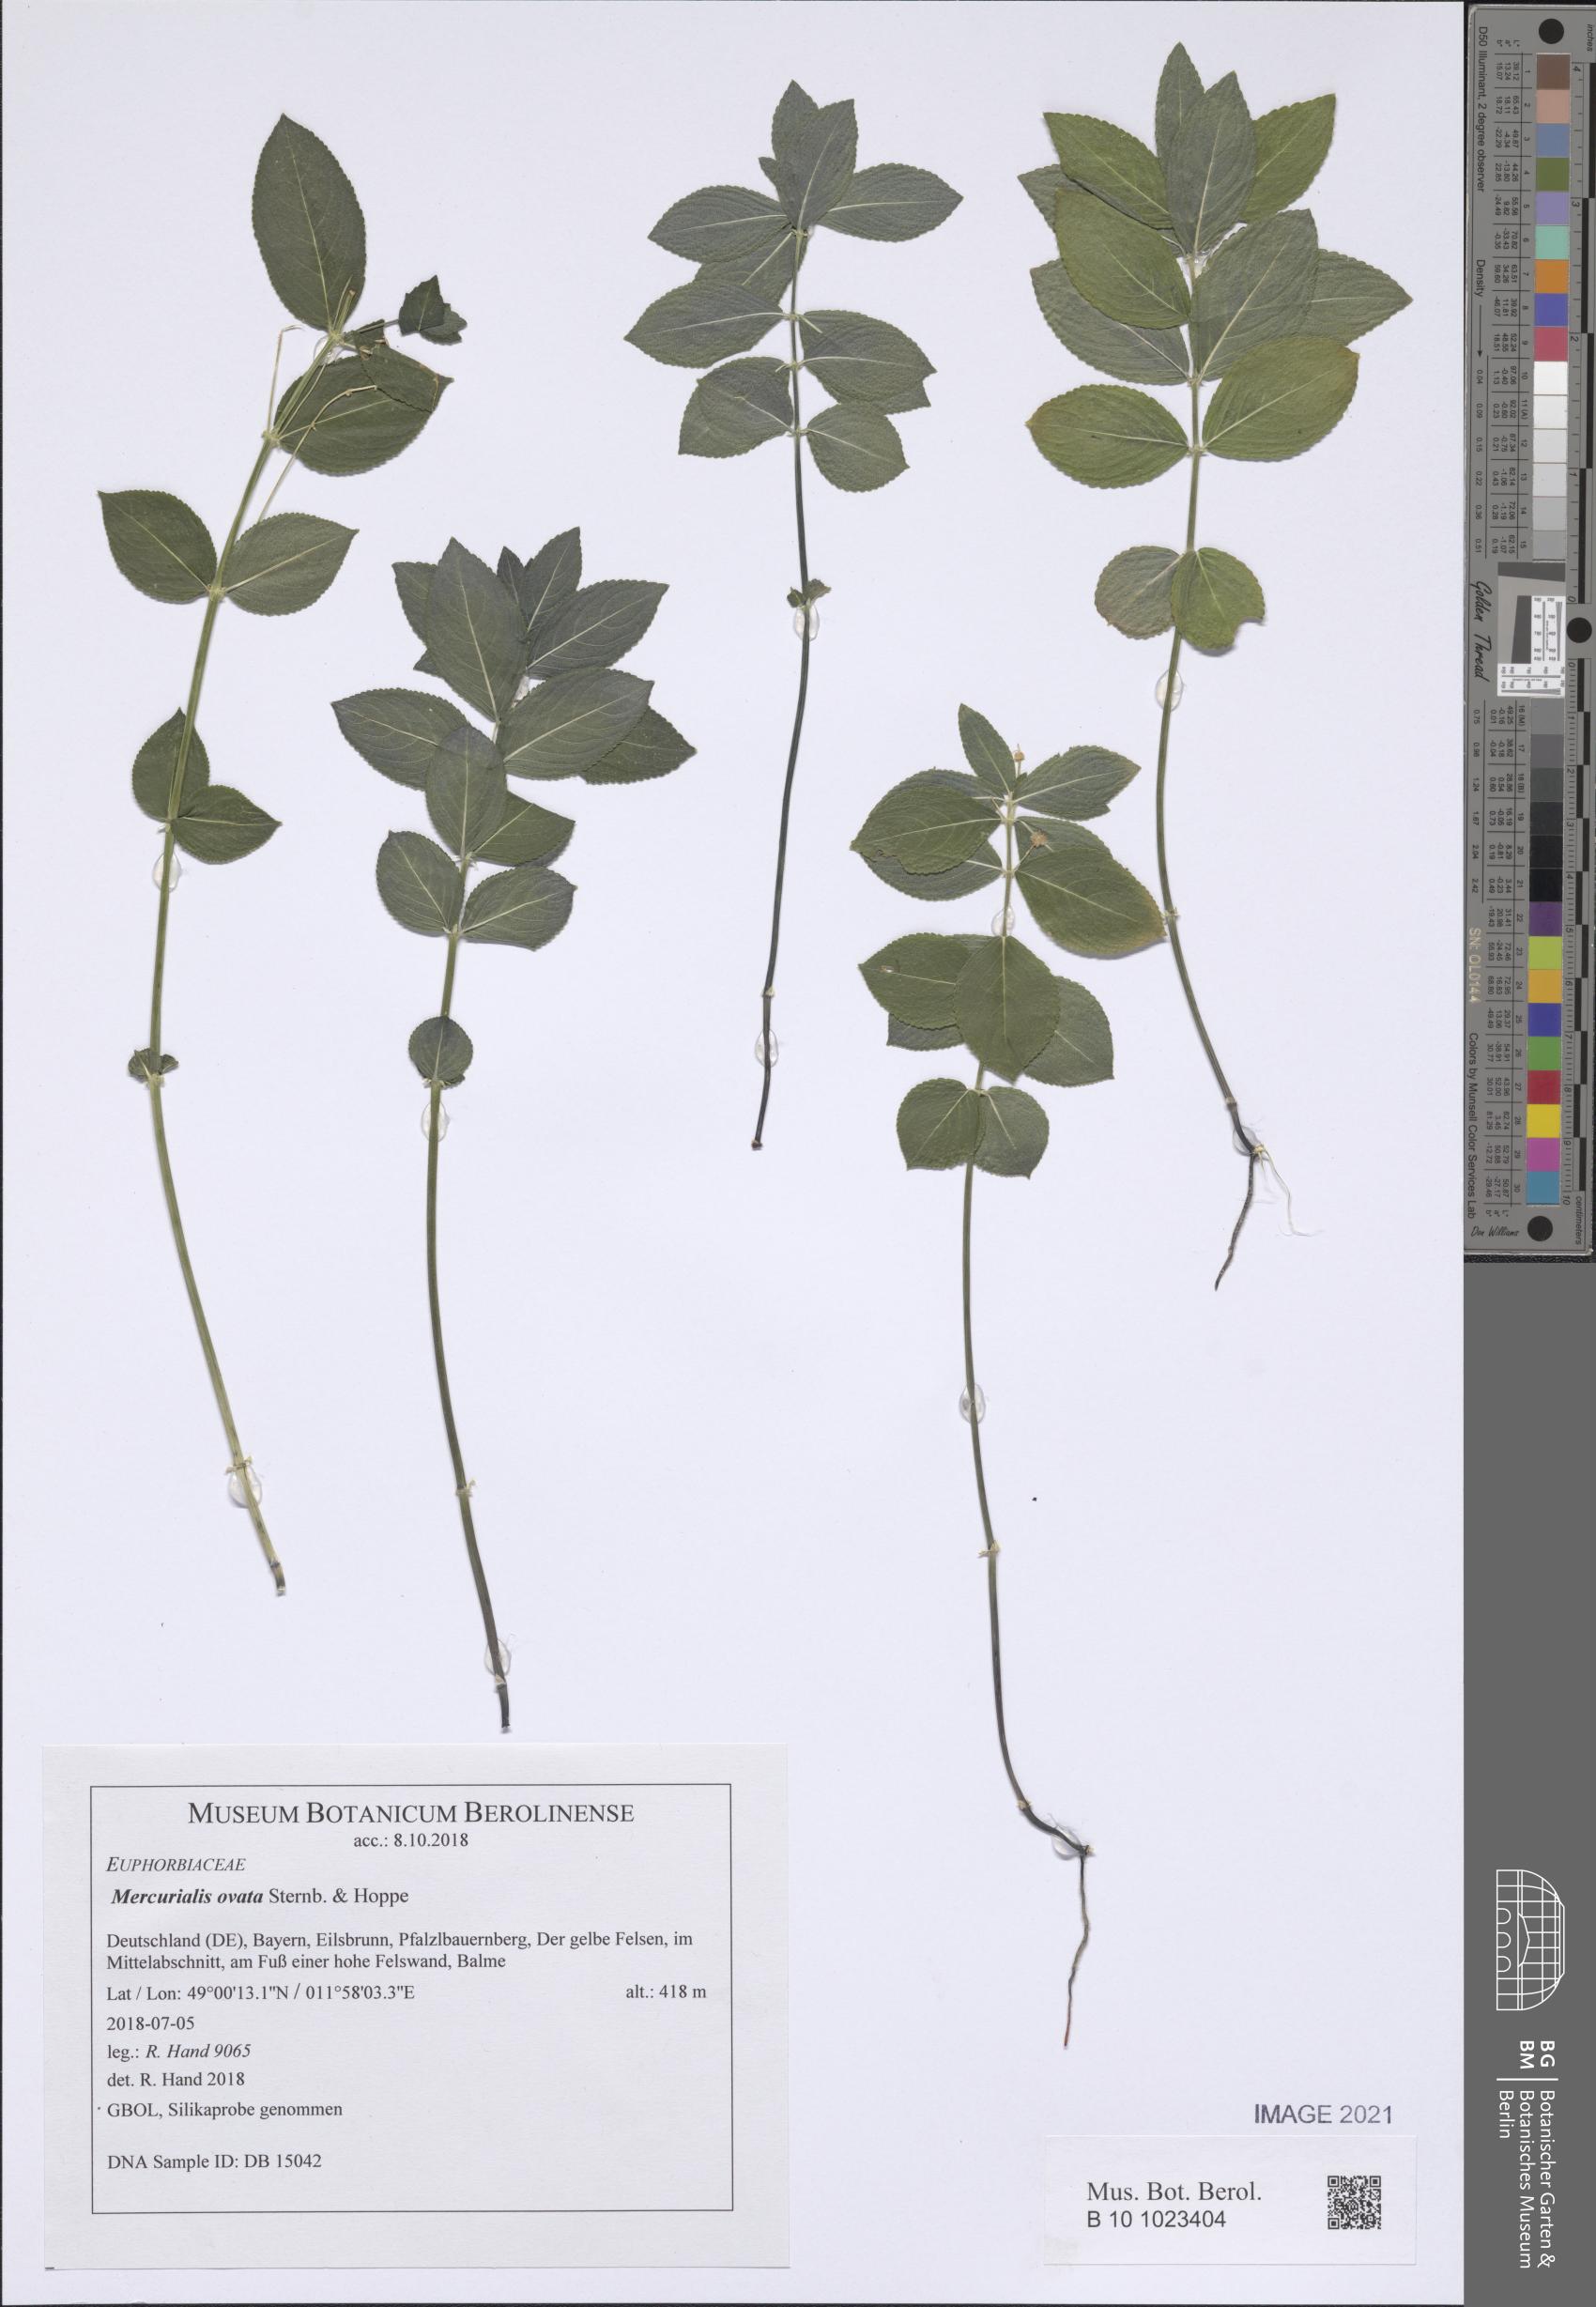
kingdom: Plantae
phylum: Tracheophyta
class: Magnoliopsida
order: Malpighiales
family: Euphorbiaceae
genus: Mercurialis
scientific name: Mercurialis ovata
